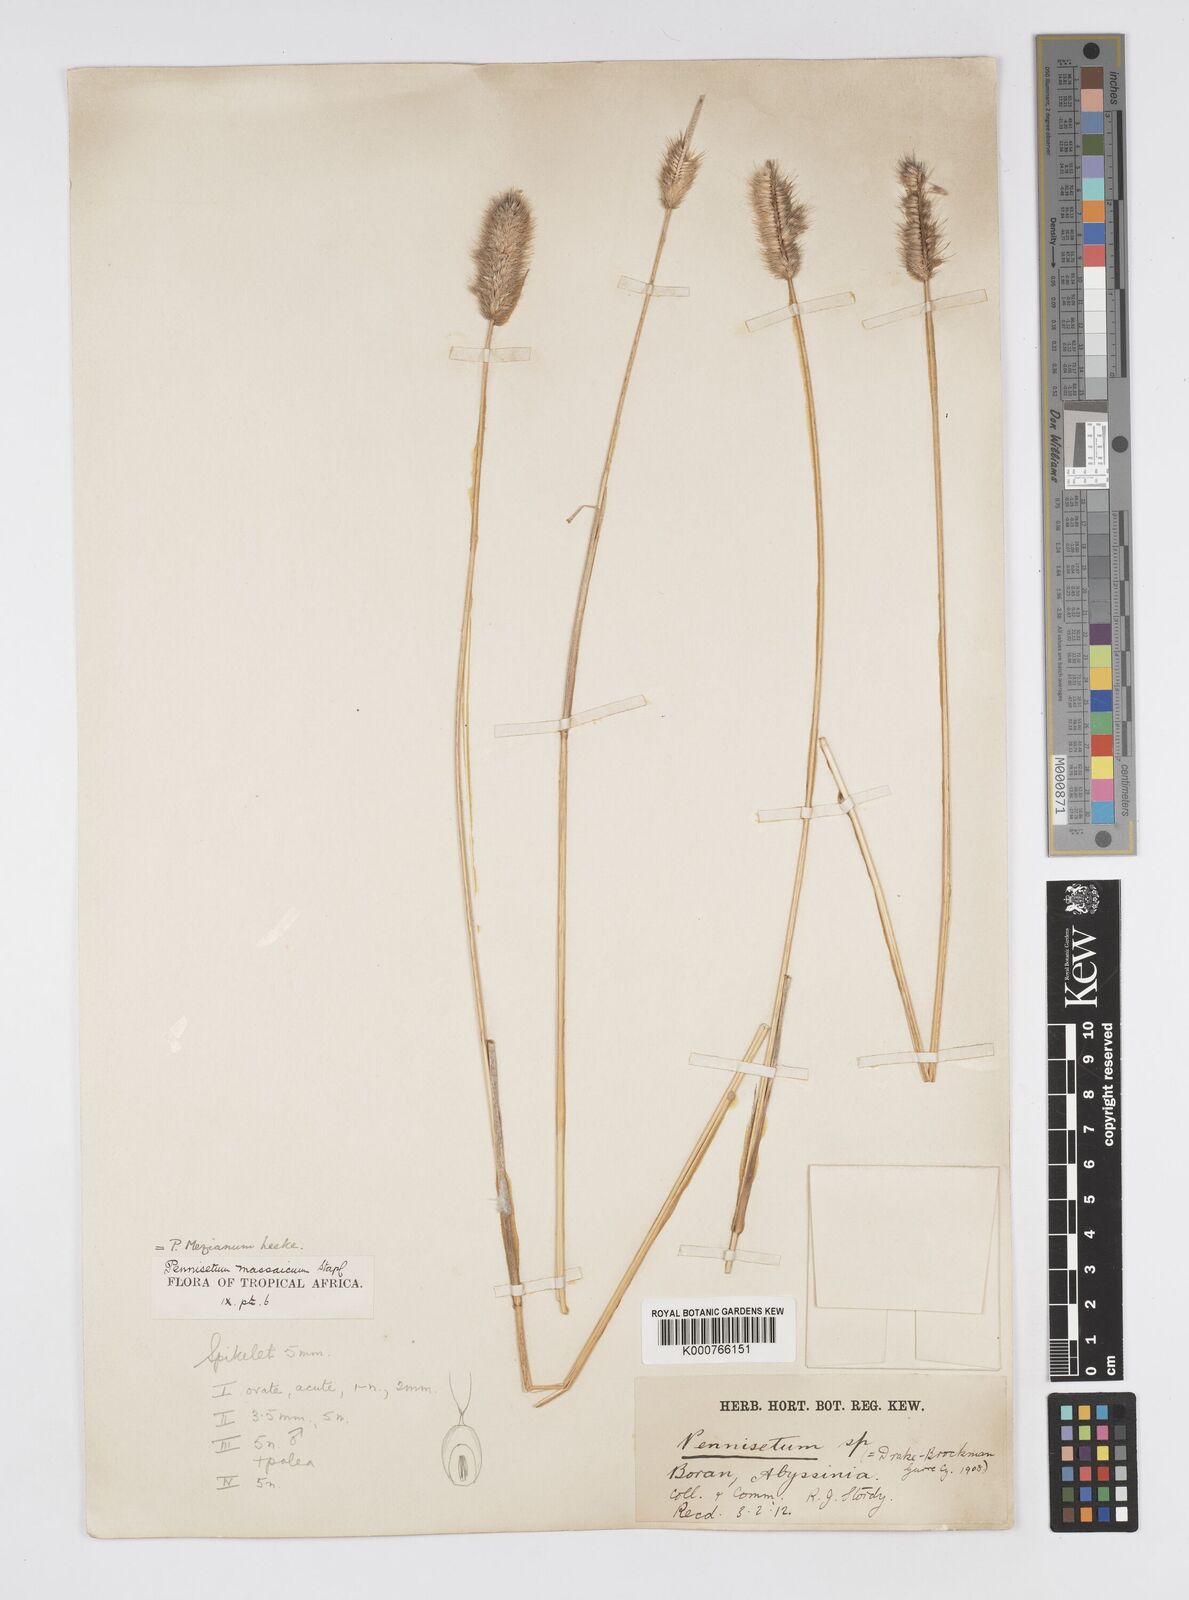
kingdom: Plantae
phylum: Tracheophyta
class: Liliopsida
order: Poales
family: Poaceae
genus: Cenchrus
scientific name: Cenchrus mezianus
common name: Bamboo grass
